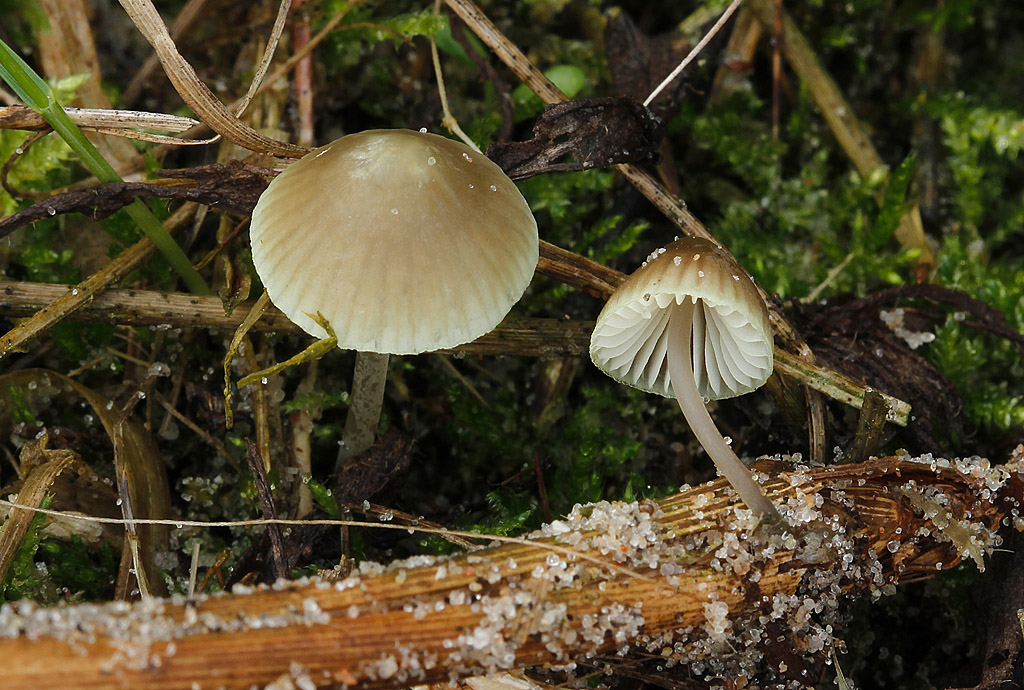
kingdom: Fungi
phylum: Basidiomycota
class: Agaricomycetes
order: Agaricales
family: Mycenaceae
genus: Mycena
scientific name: Mycena chlorantha
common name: klit-huesvamp
